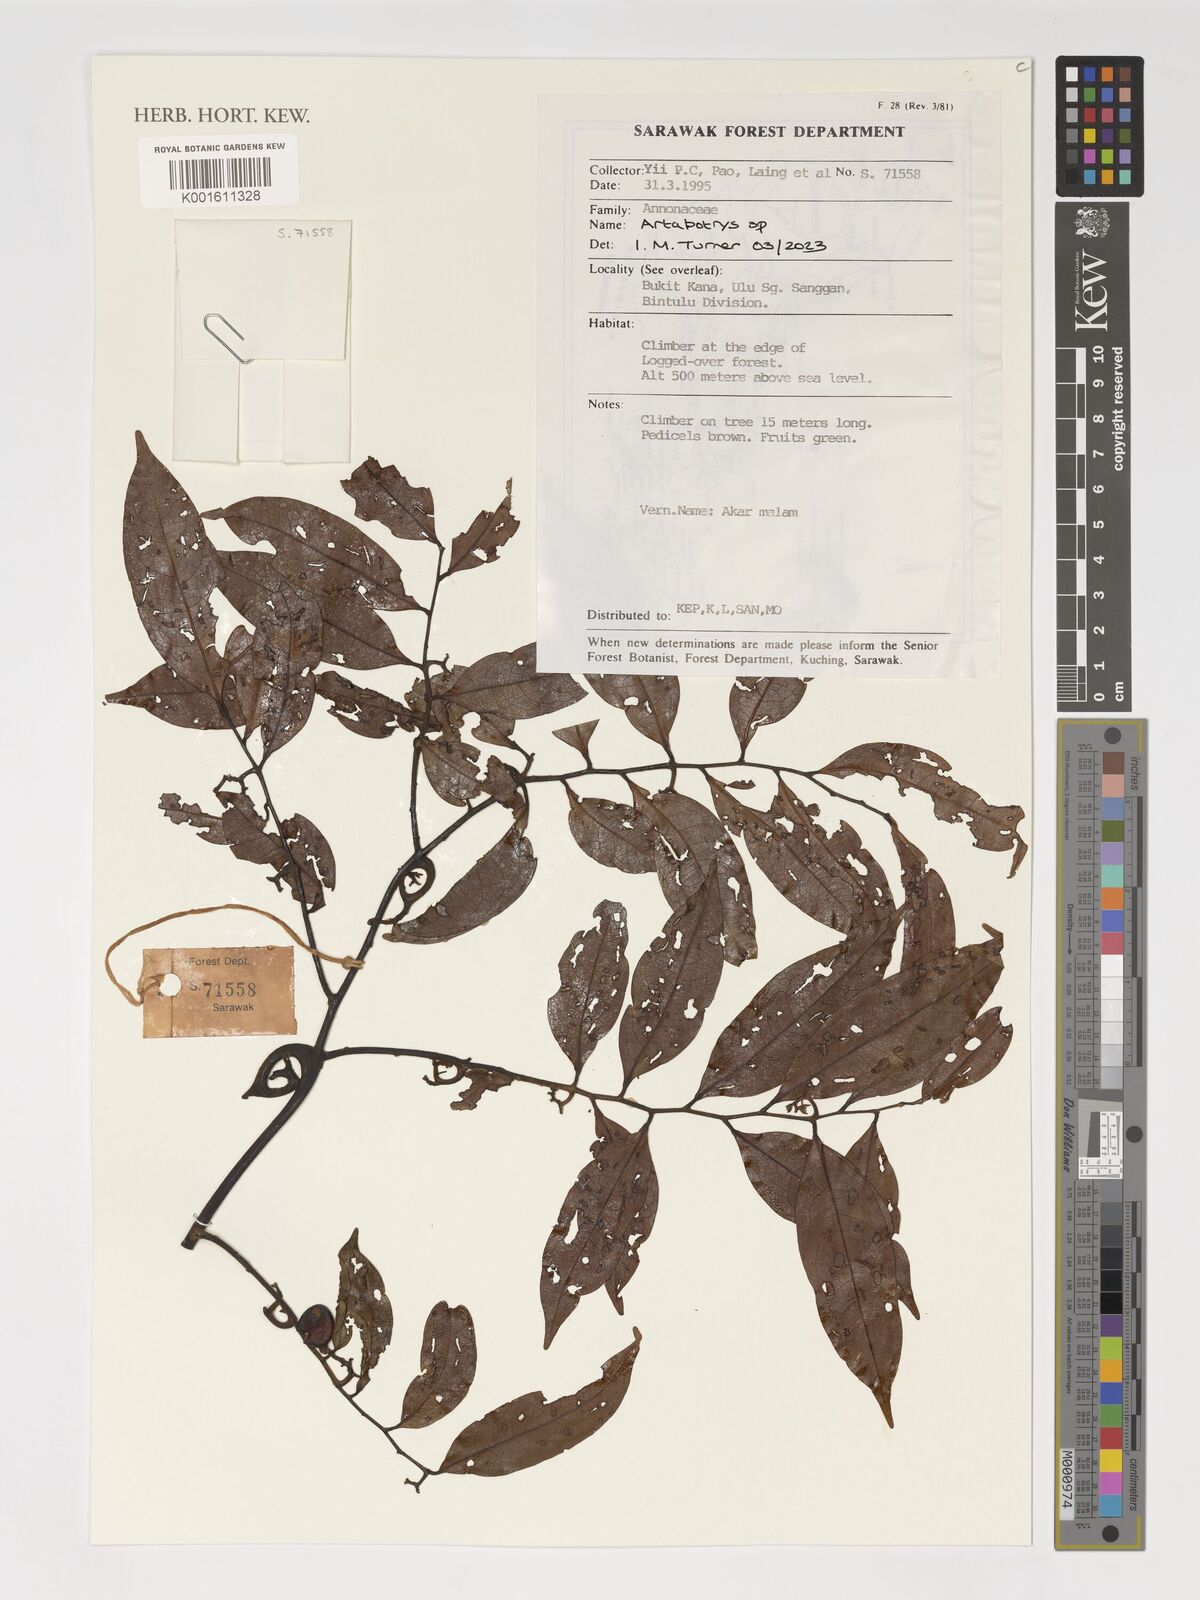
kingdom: Plantae
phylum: Tracheophyta
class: Magnoliopsida
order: Magnoliales
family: Annonaceae
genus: Artabotrys
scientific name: Artabotrys
